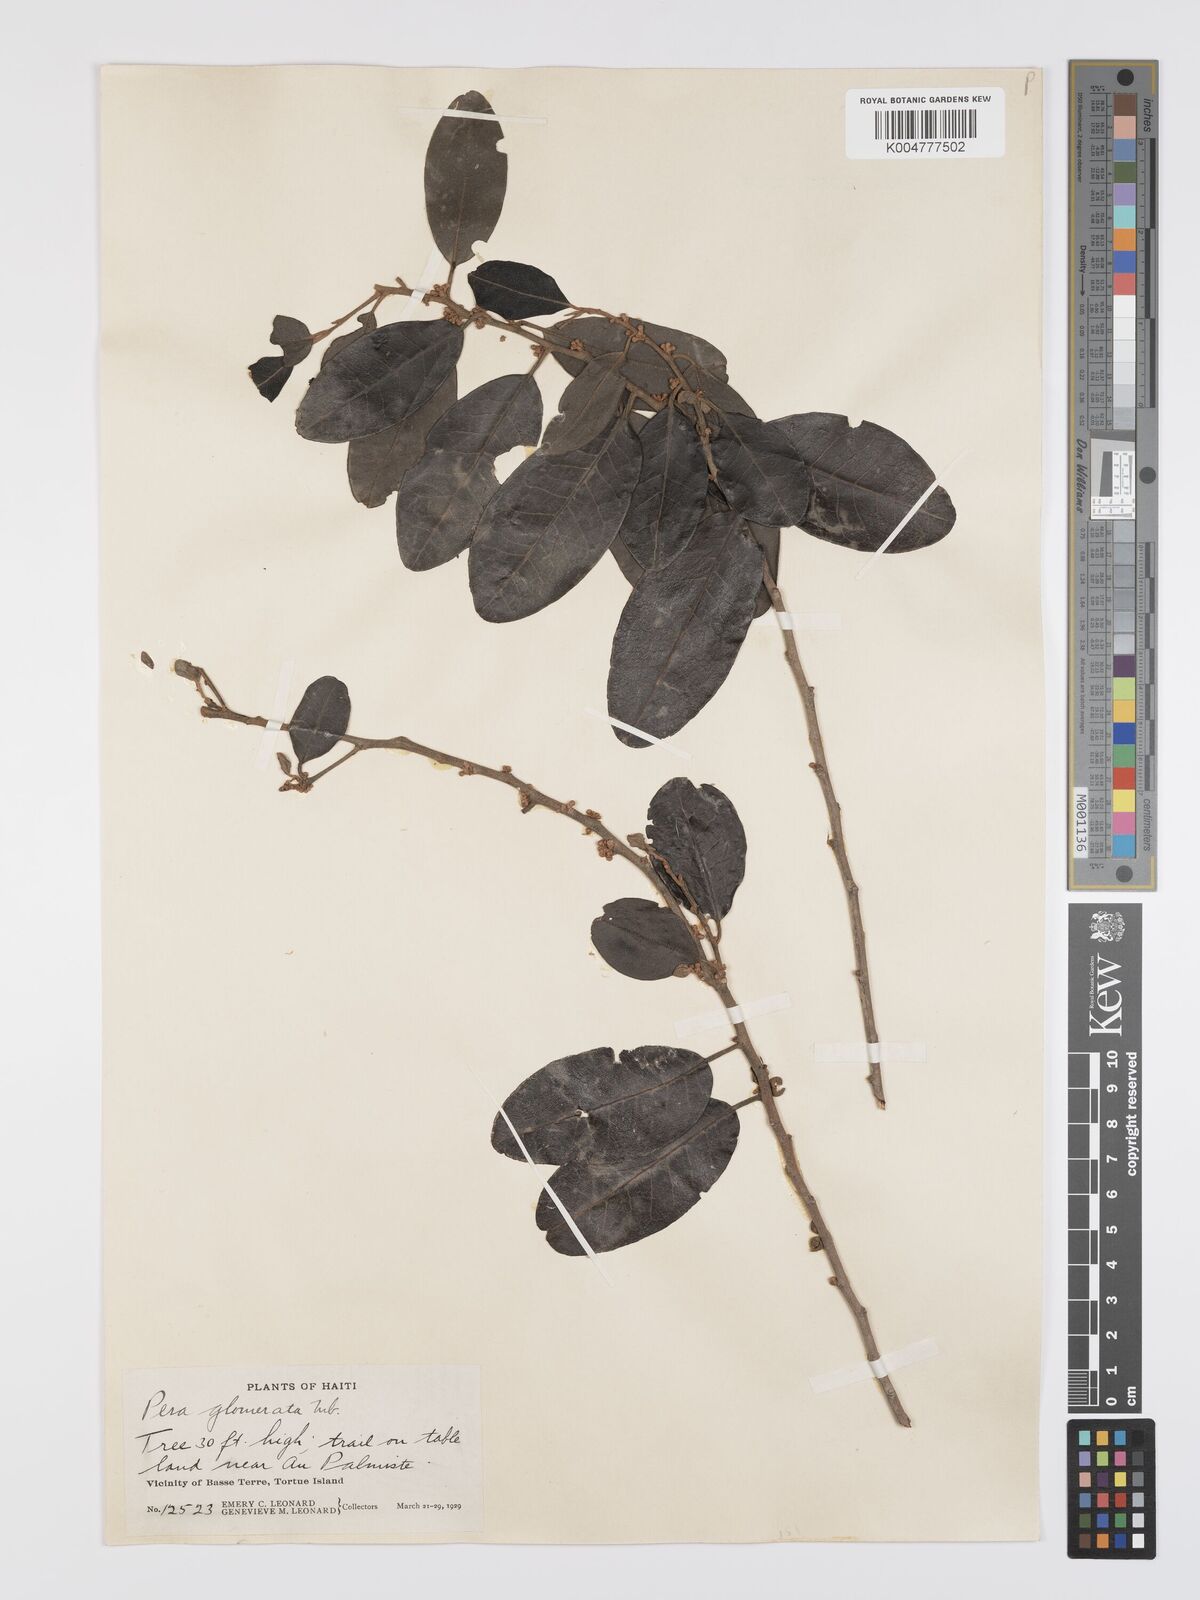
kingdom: Plantae
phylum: Tracheophyta
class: Magnoliopsida
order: Malpighiales
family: Peraceae
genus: Pera
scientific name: Pera glomerata
